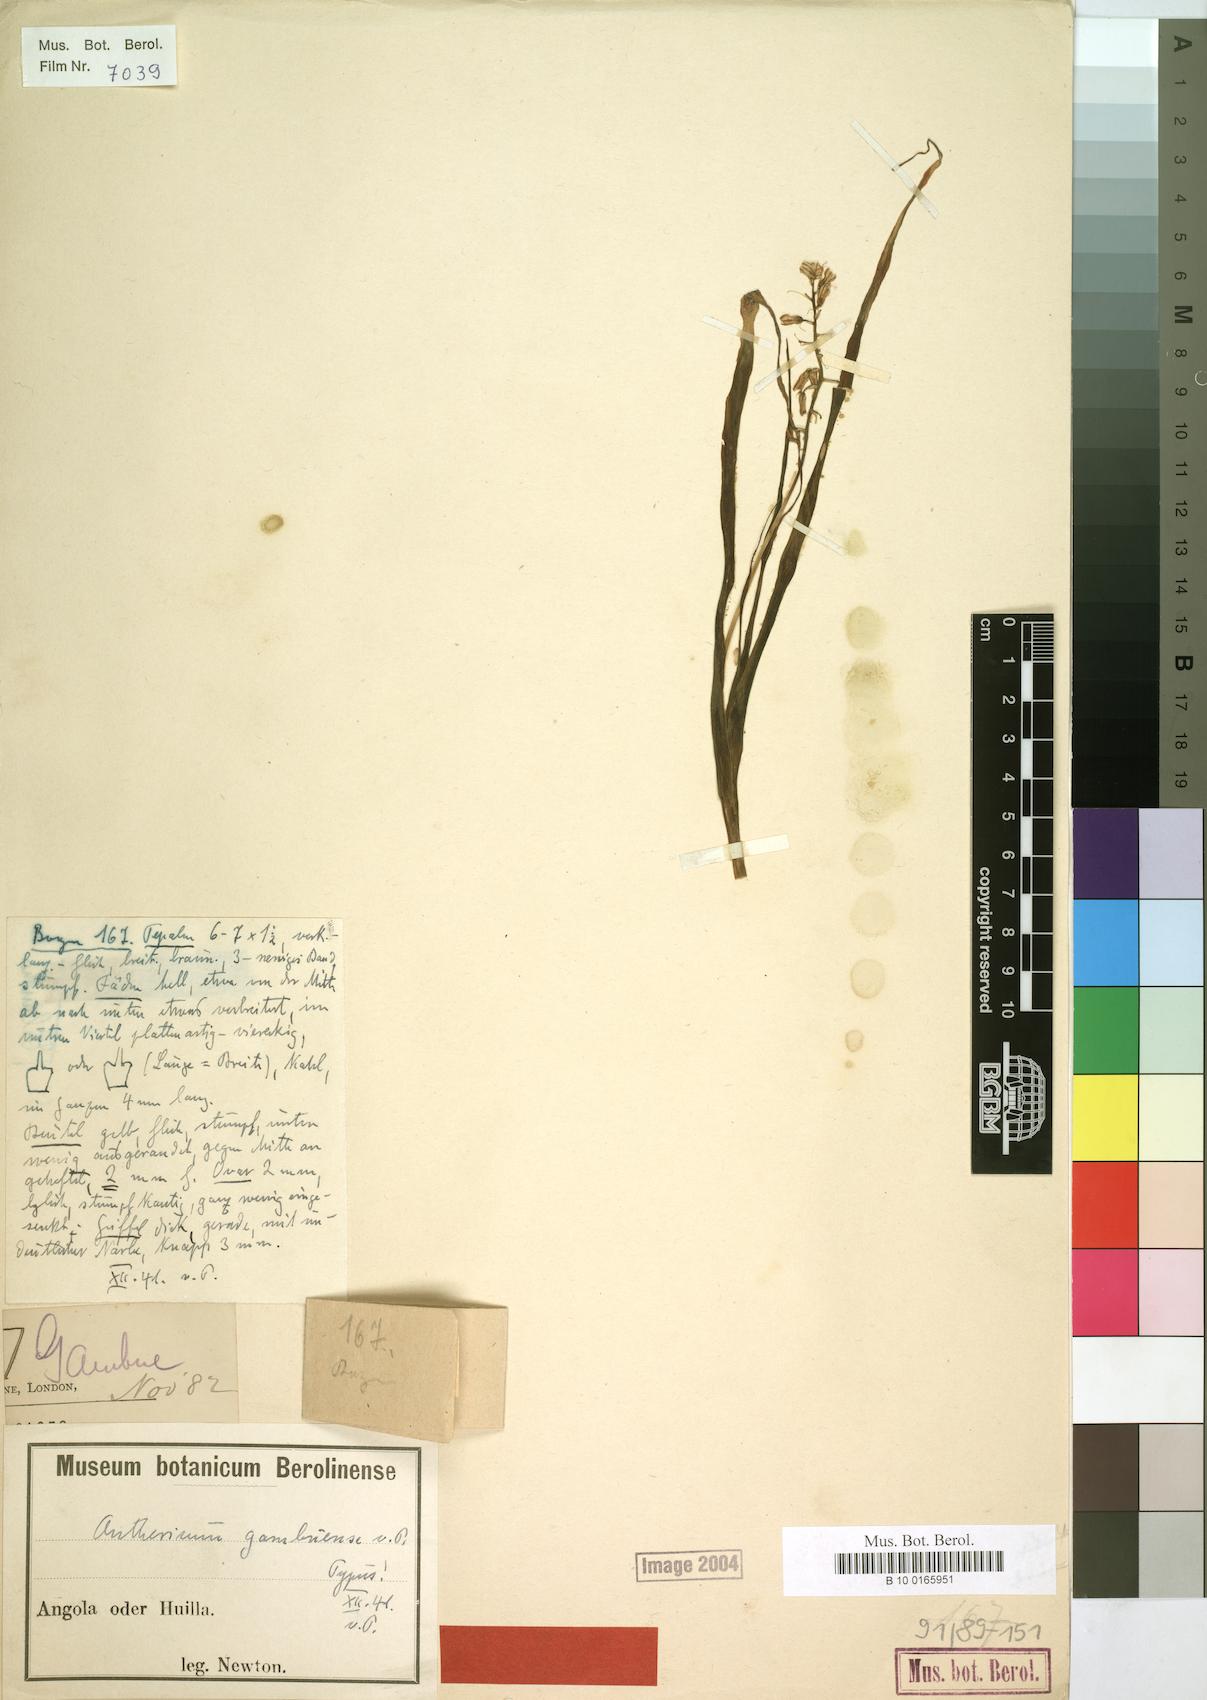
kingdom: Plantae
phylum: Tracheophyta
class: Liliopsida
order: Asparagales
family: Asparagaceae
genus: Anthericum
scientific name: Anthericum gambuense
